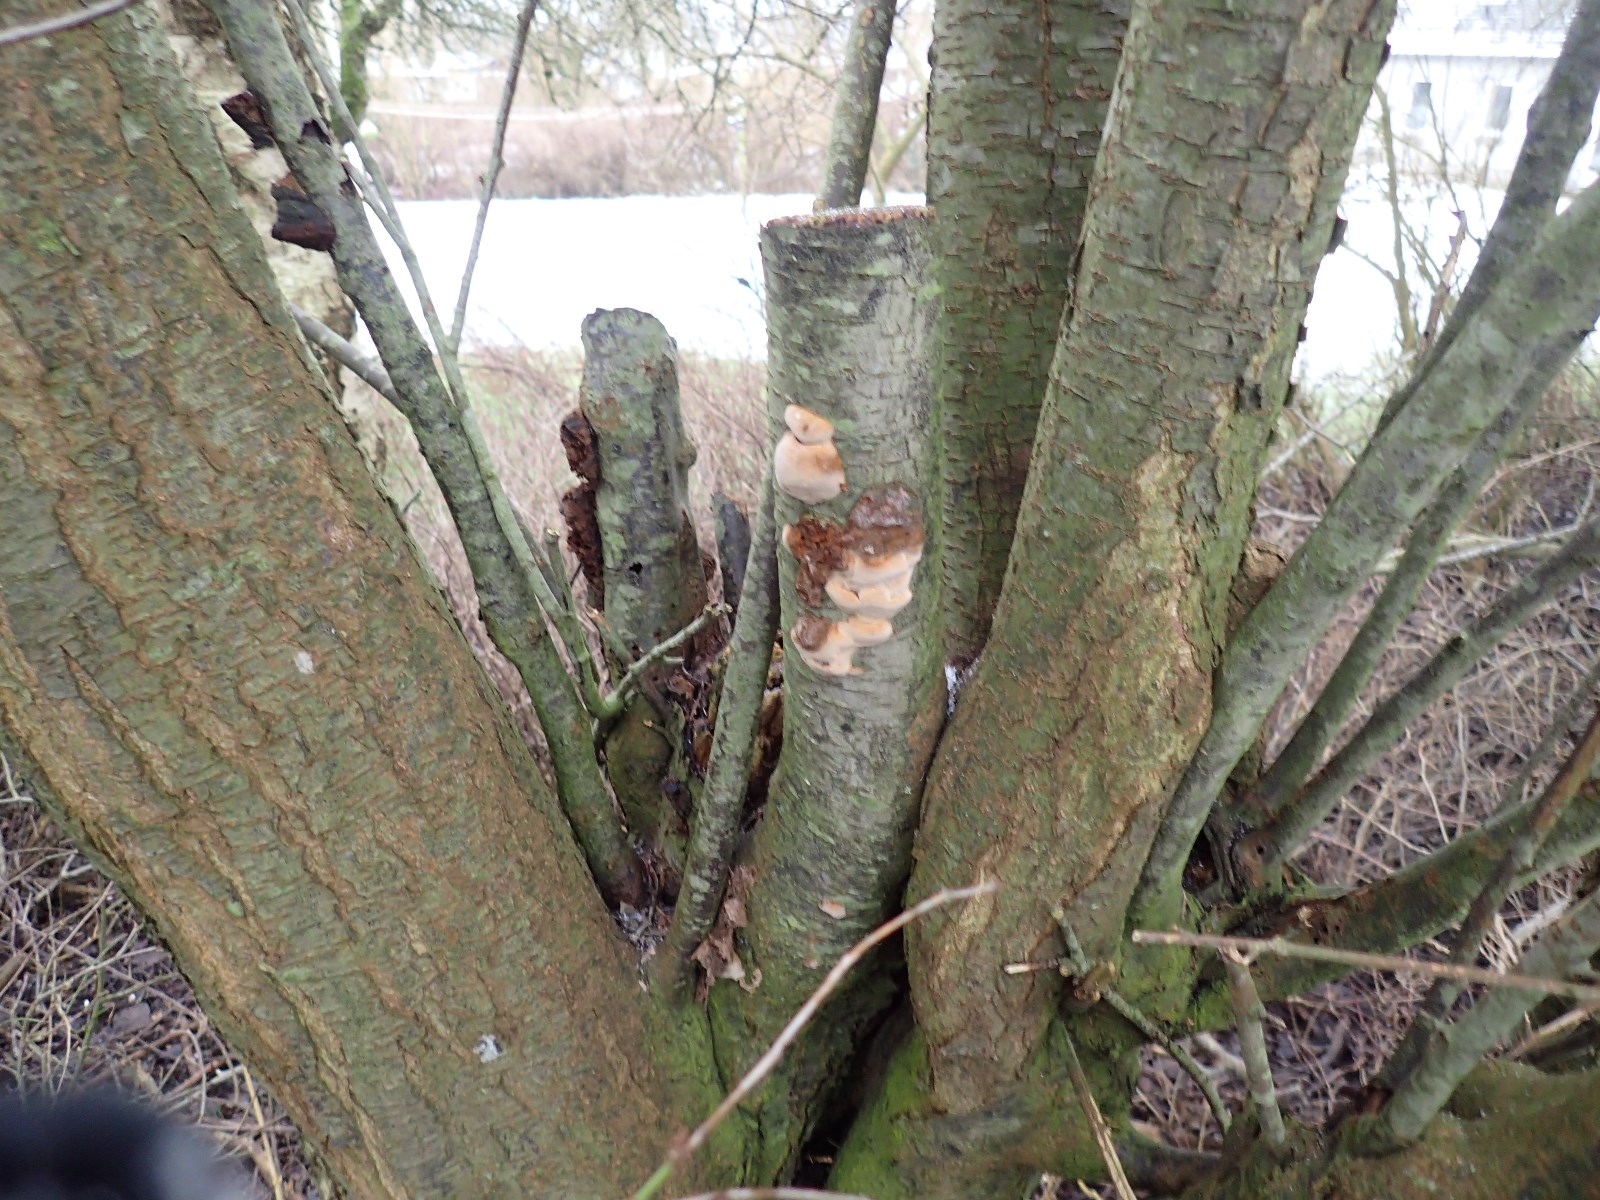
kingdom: Fungi
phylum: Basidiomycota
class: Agaricomycetes
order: Hymenochaetales
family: Hymenochaetaceae
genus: Phellinus
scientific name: Phellinus pomaceus
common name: blomme-ildporesvamp
